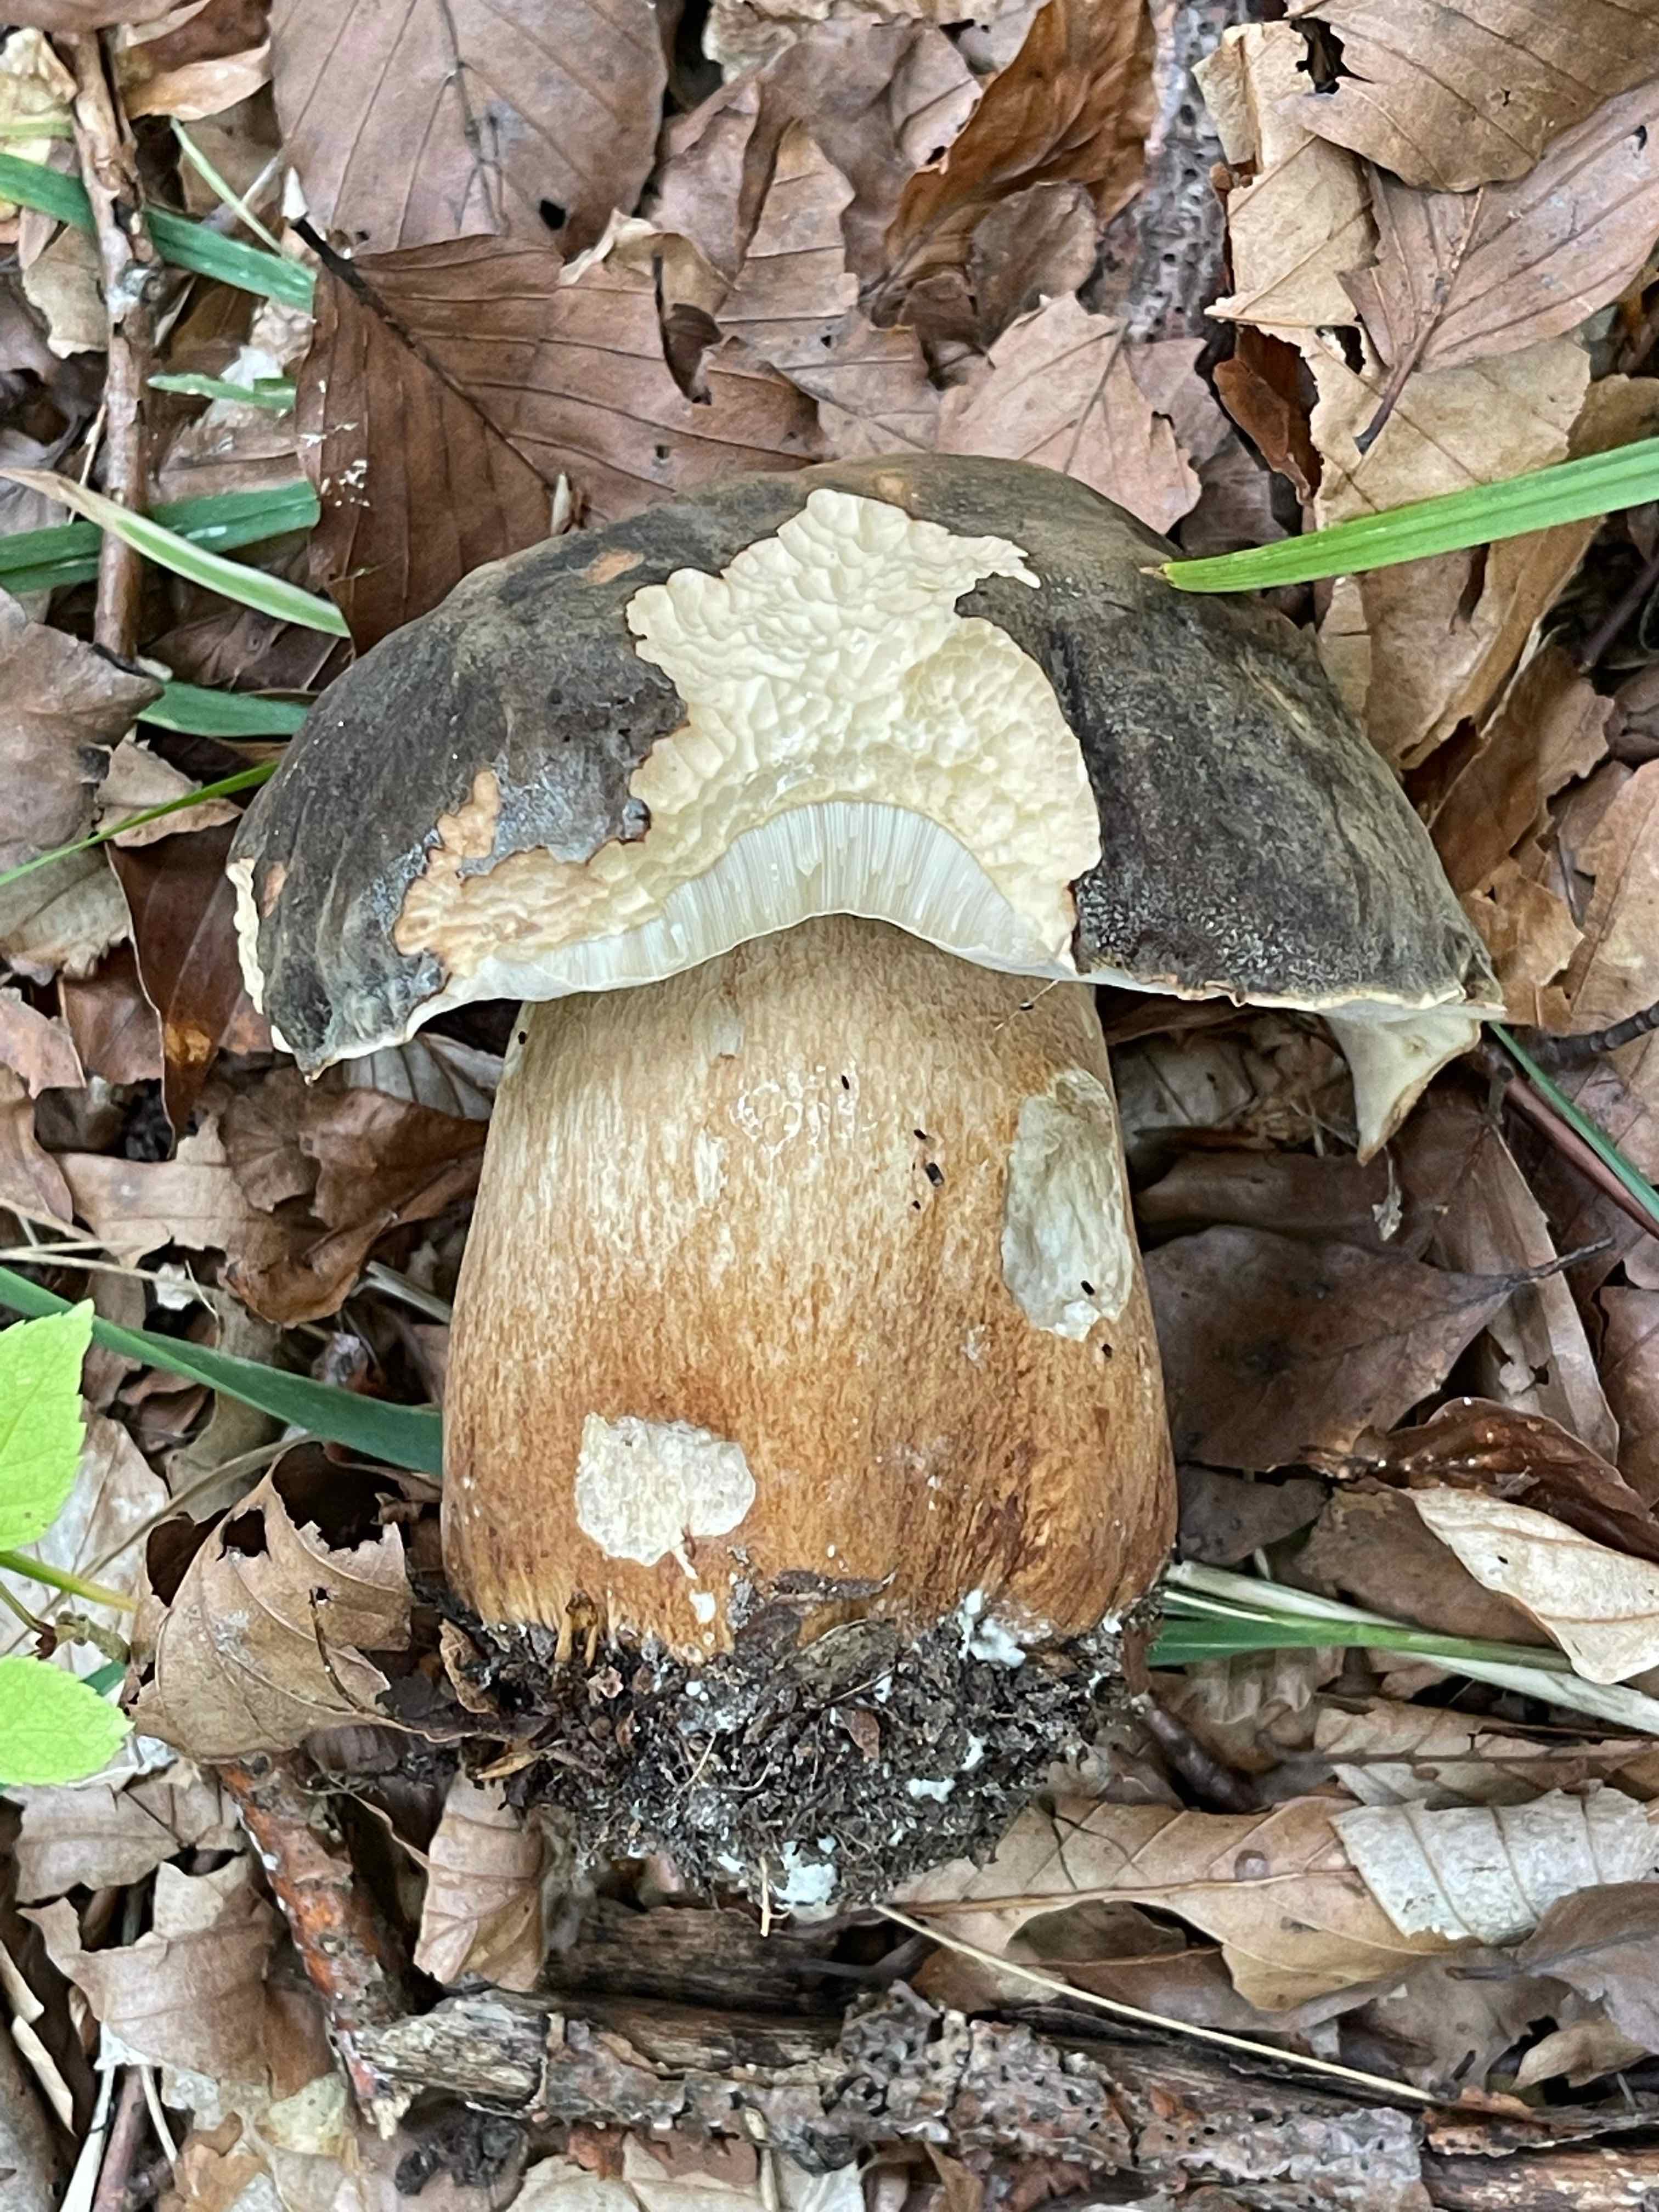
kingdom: Fungi
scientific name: Fungi
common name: bronze-rørhat
